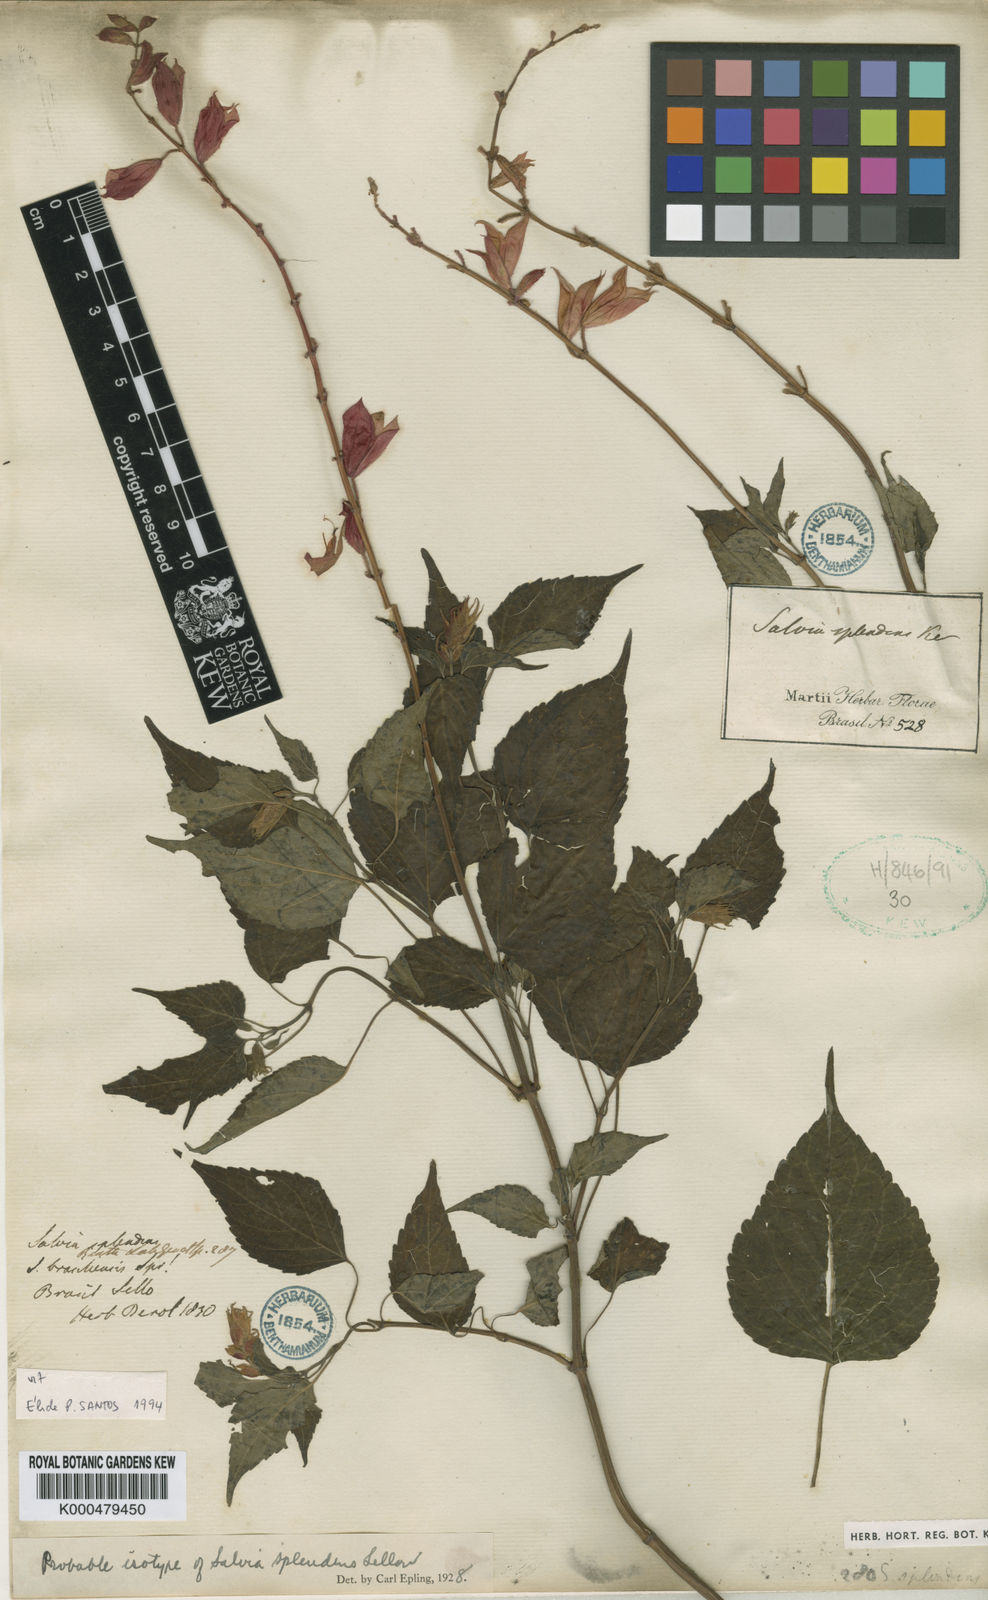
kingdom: Plantae
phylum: Tracheophyta
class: Magnoliopsida
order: Lamiales
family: Lamiaceae
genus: Salvia
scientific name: Salvia
